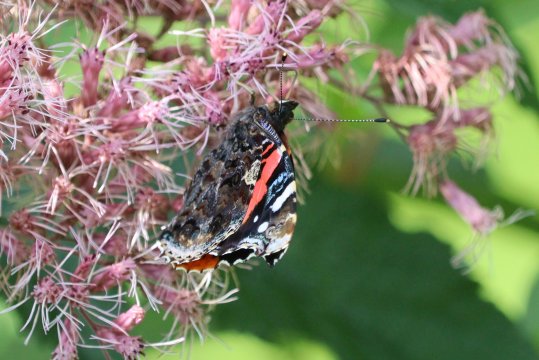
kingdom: Animalia
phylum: Arthropoda
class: Insecta
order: Lepidoptera
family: Nymphalidae
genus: Vanessa
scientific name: Vanessa atalanta
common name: Red Admiral
